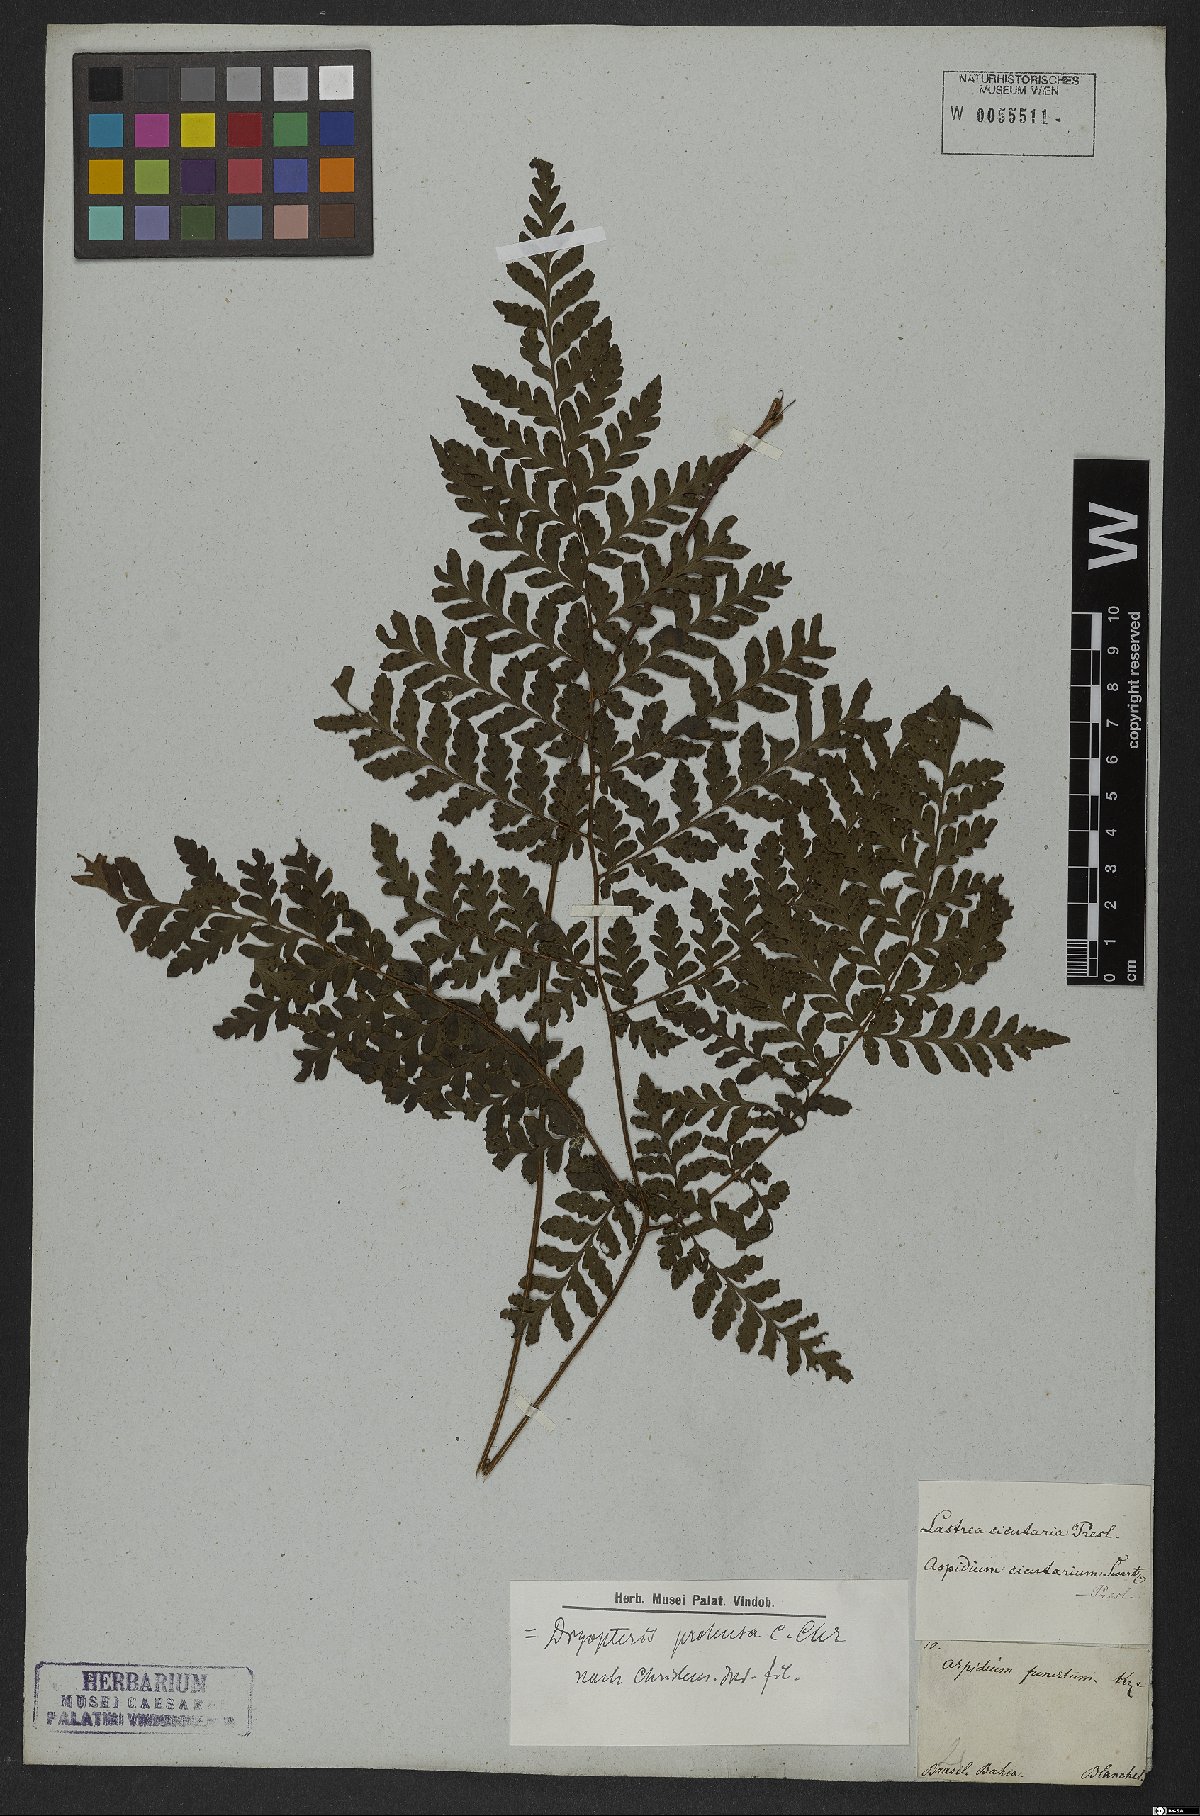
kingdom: Plantae
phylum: Tracheophyta
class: Polypodiopsida
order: Polypodiales
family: Tectariaceae
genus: Triplophyllum
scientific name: Triplophyllum protensum
